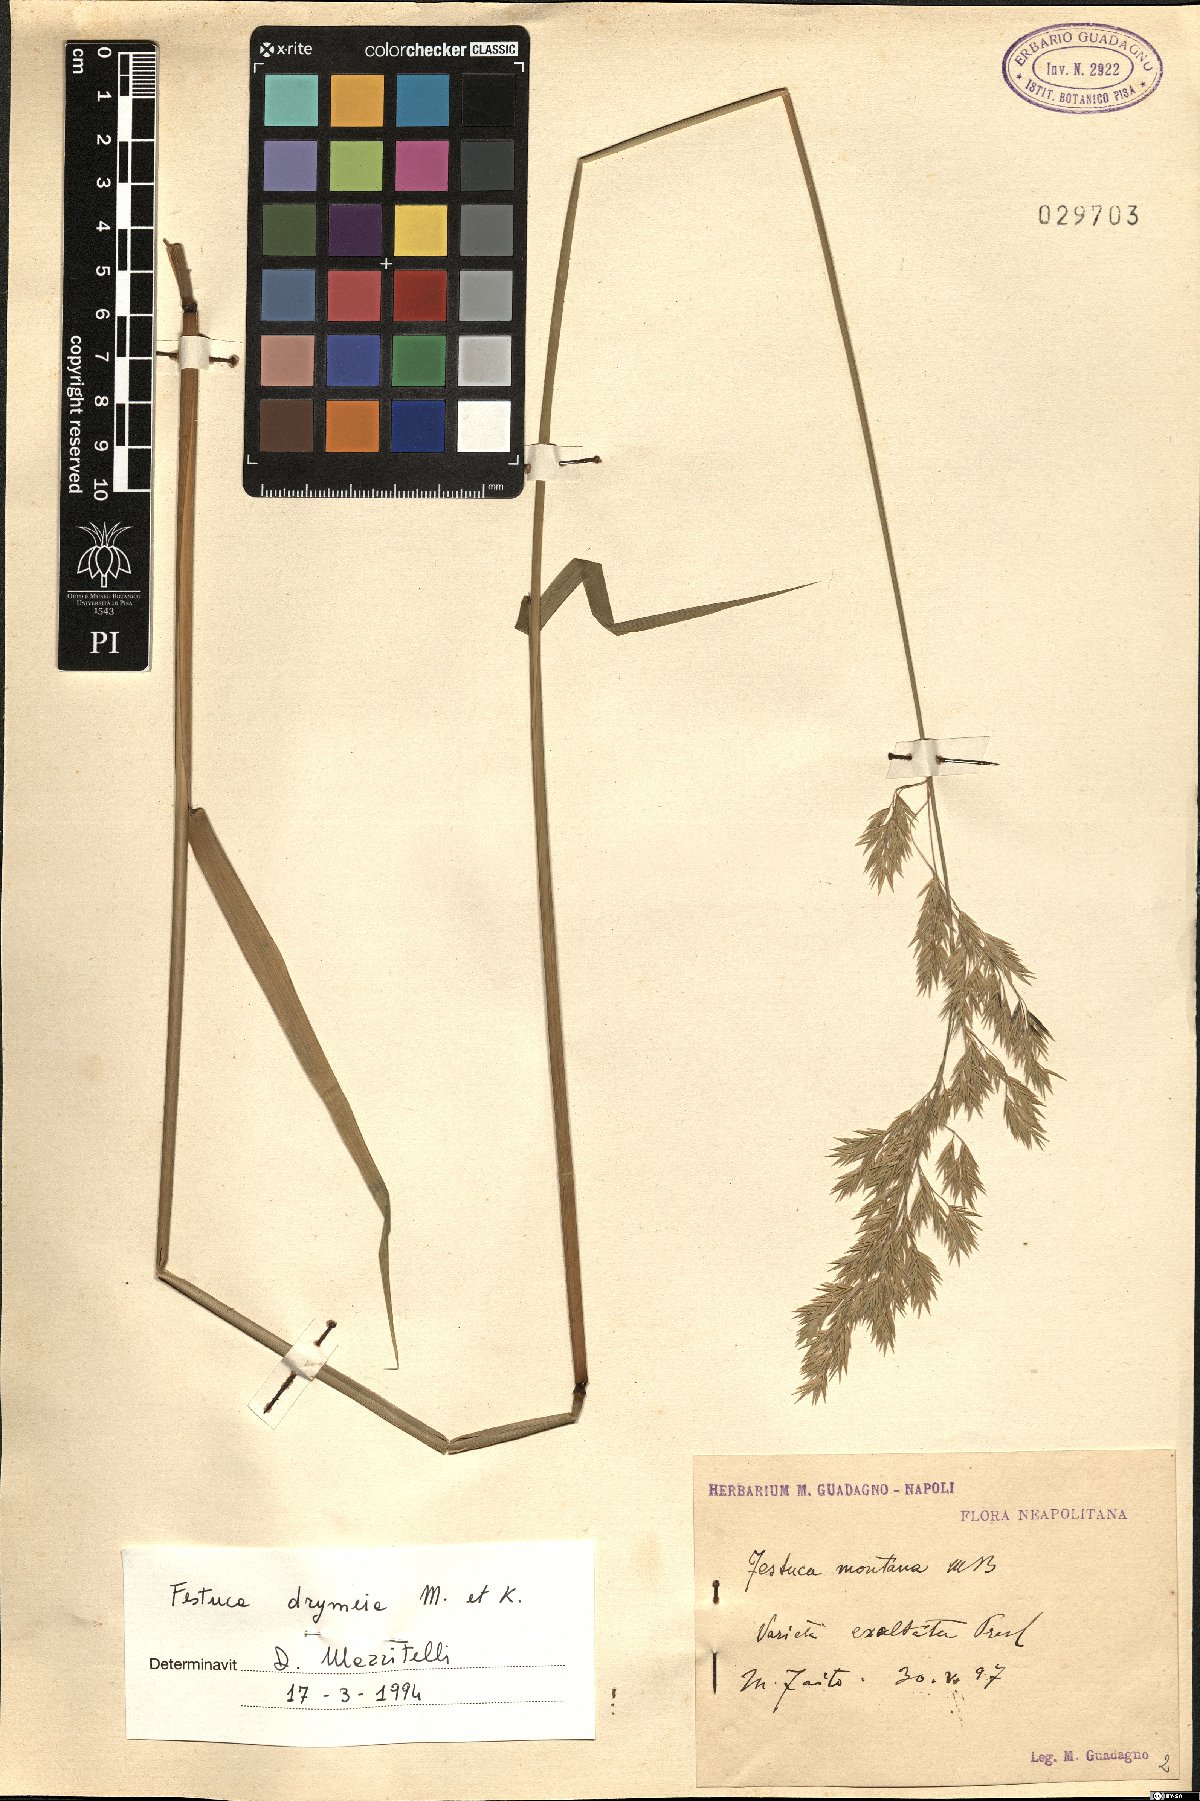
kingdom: Plantae
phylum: Tracheophyta
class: Liliopsida
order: Poales
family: Poaceae
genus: Festuca
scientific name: Festuca drymeja
